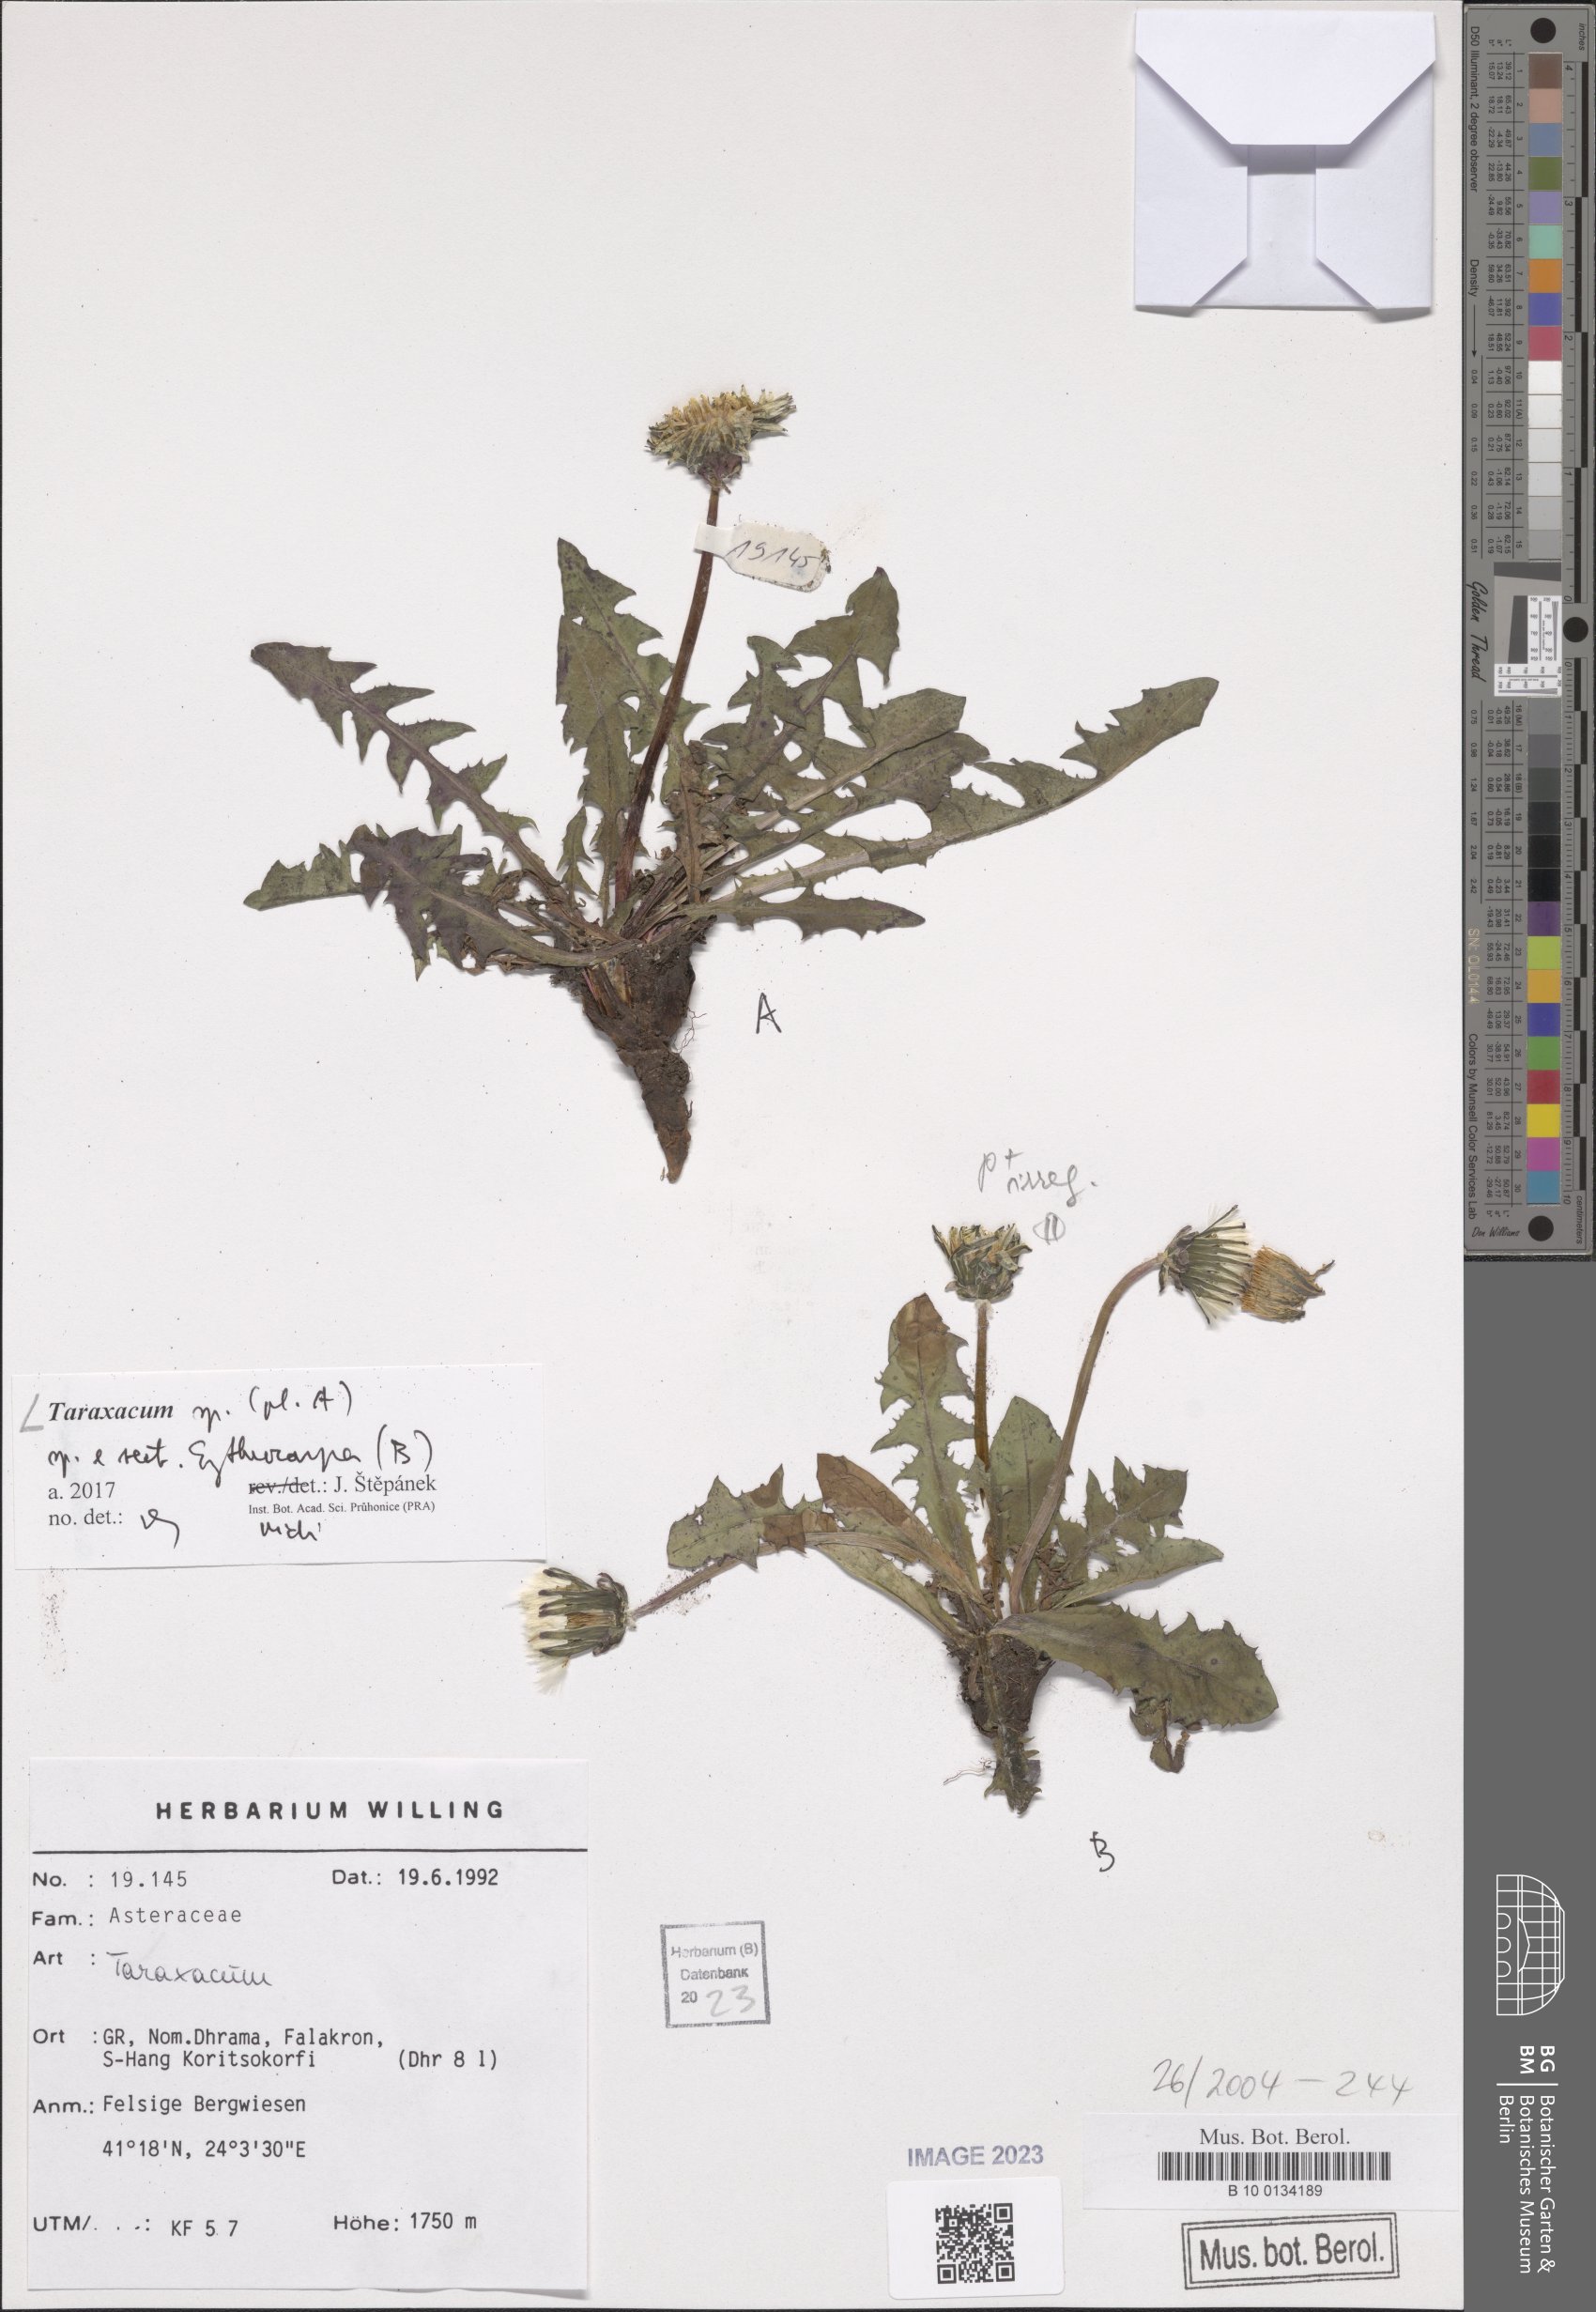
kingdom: Plantae
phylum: Tracheophyta
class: Magnoliopsida
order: Asterales
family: Asteraceae
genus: Taraxacum
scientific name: Taraxacum
